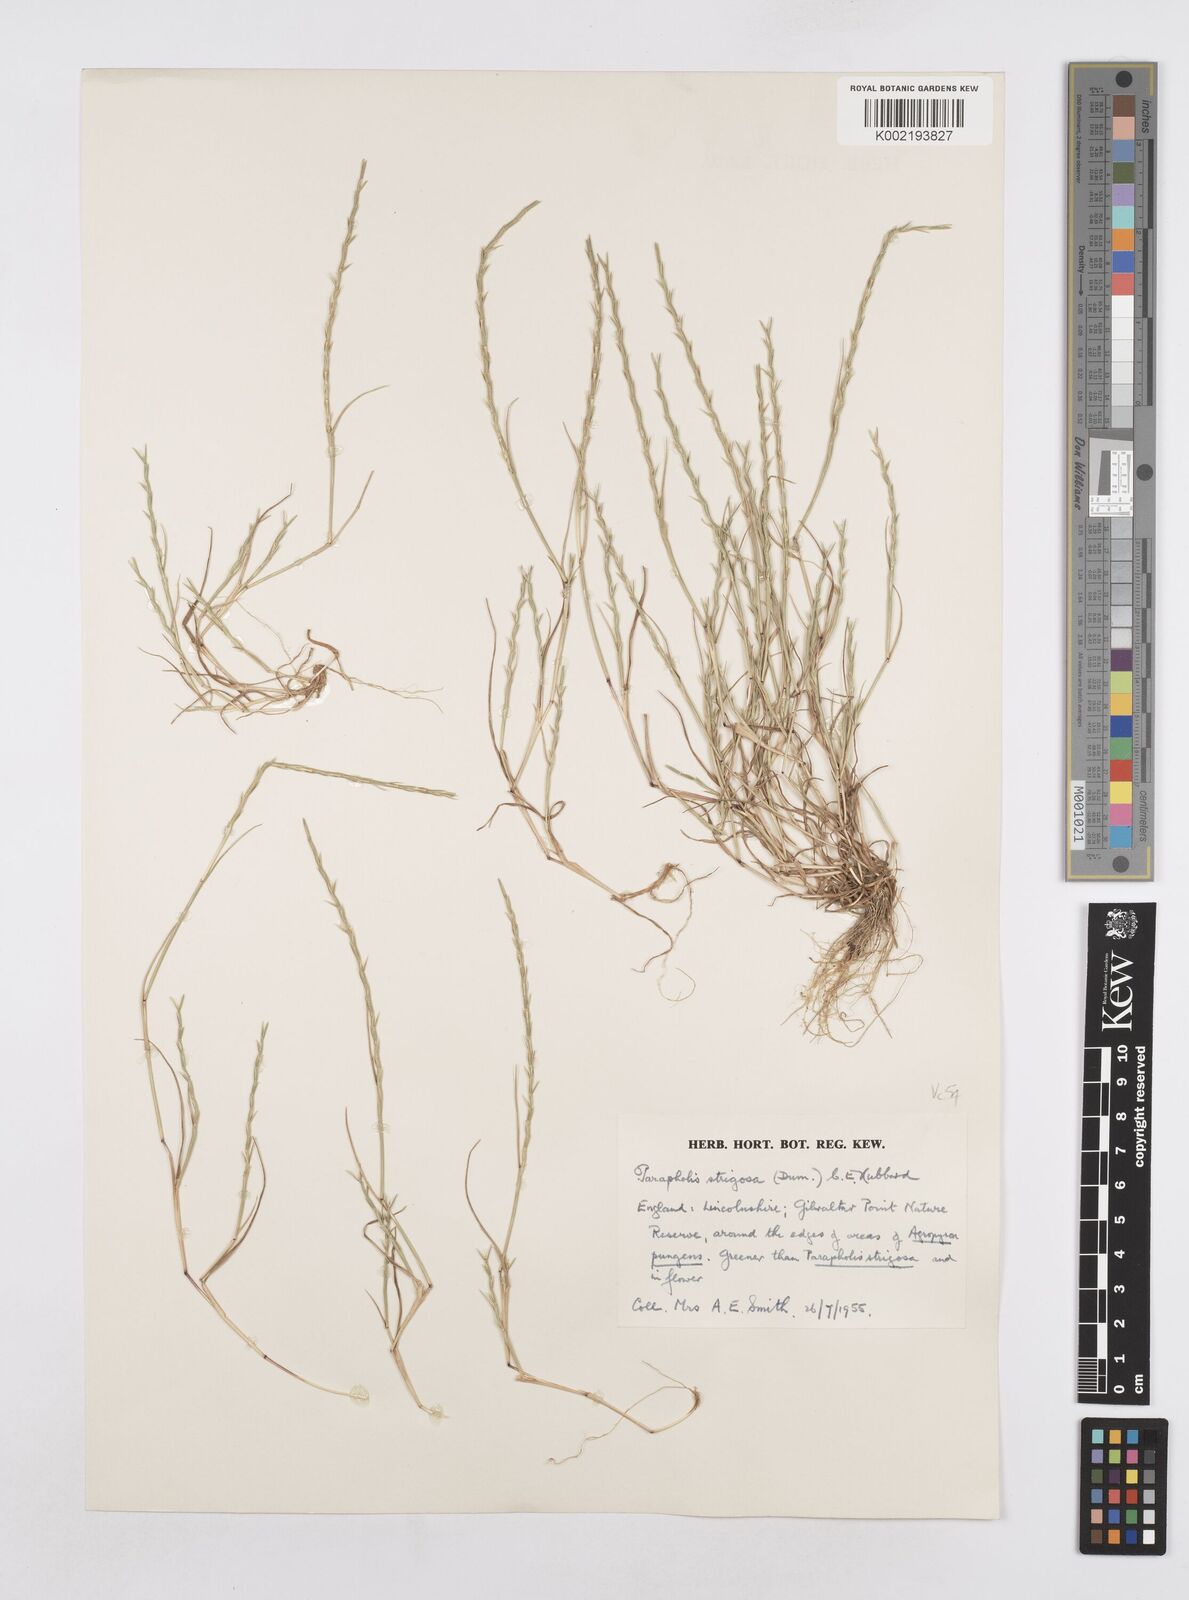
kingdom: Plantae
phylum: Tracheophyta
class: Liliopsida
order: Poales
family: Poaceae
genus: Parapholis
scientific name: Parapholis strigosa
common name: Hard-grass
